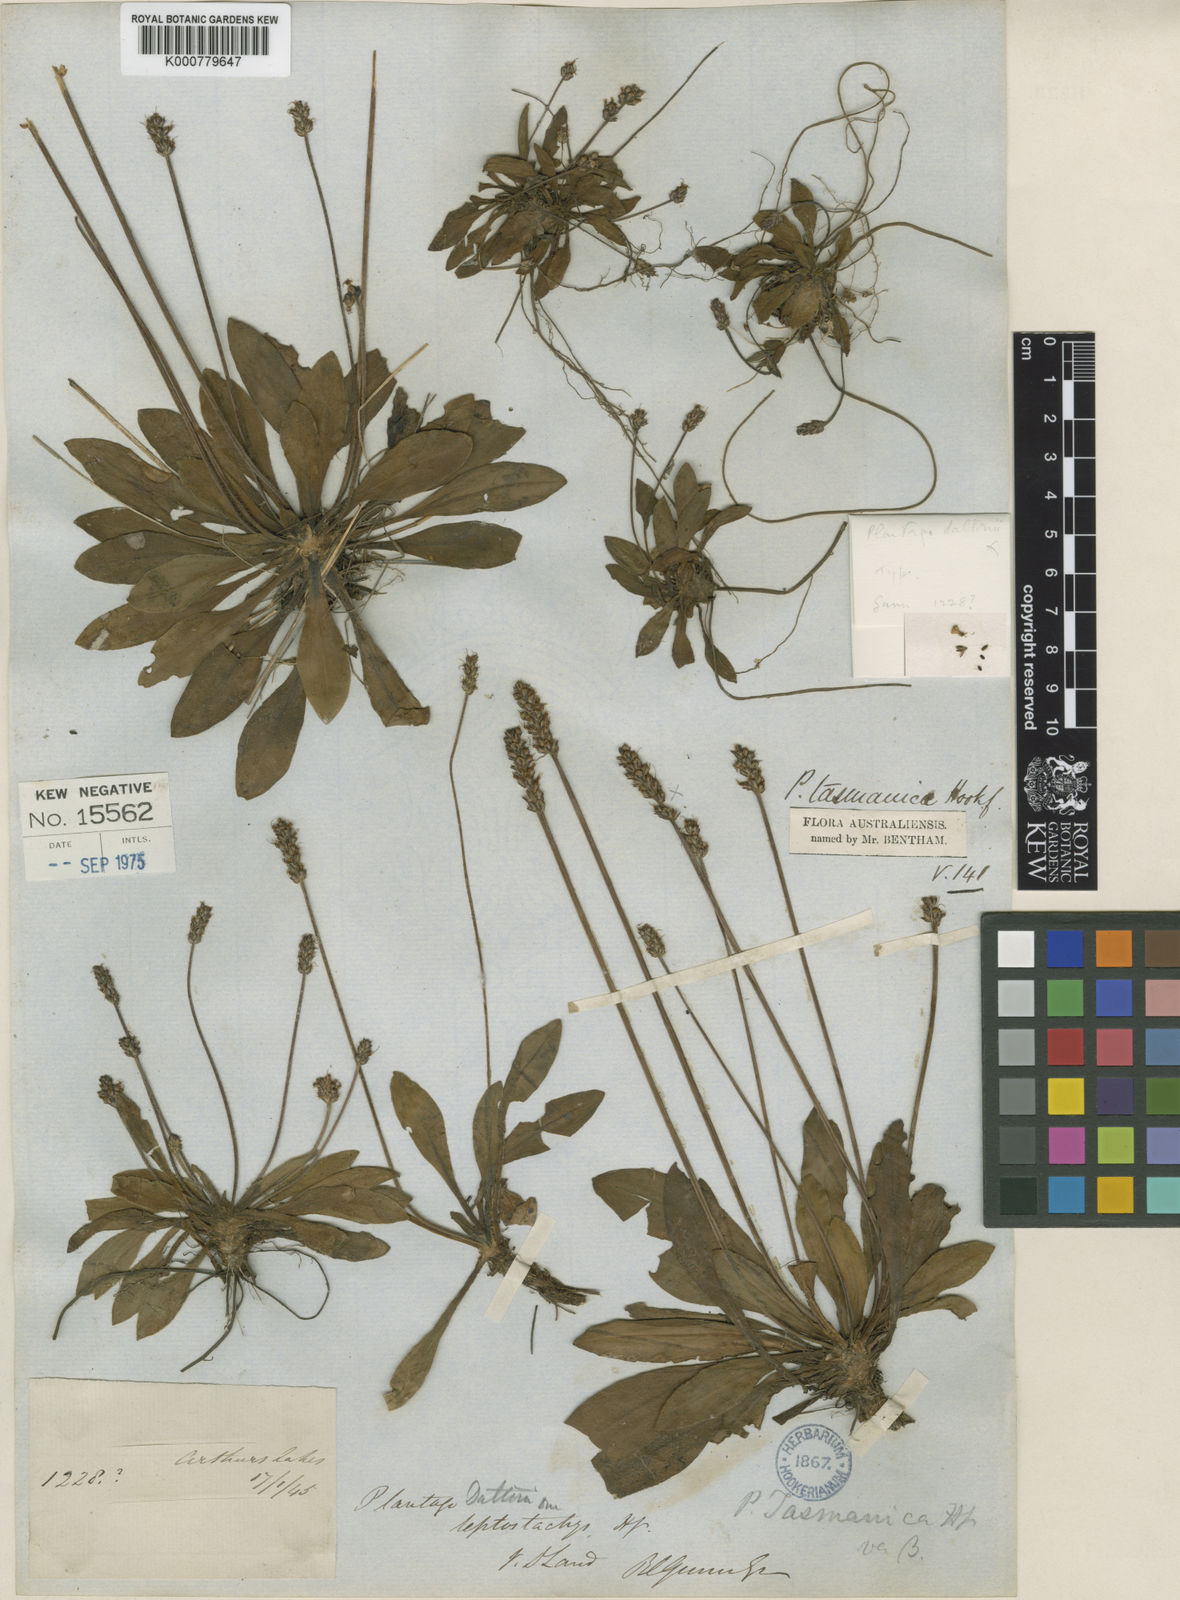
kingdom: Plantae
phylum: Tracheophyta
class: Magnoliopsida
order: Lamiales
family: Plantaginaceae
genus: Plantago
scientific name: Plantago tasmanica
